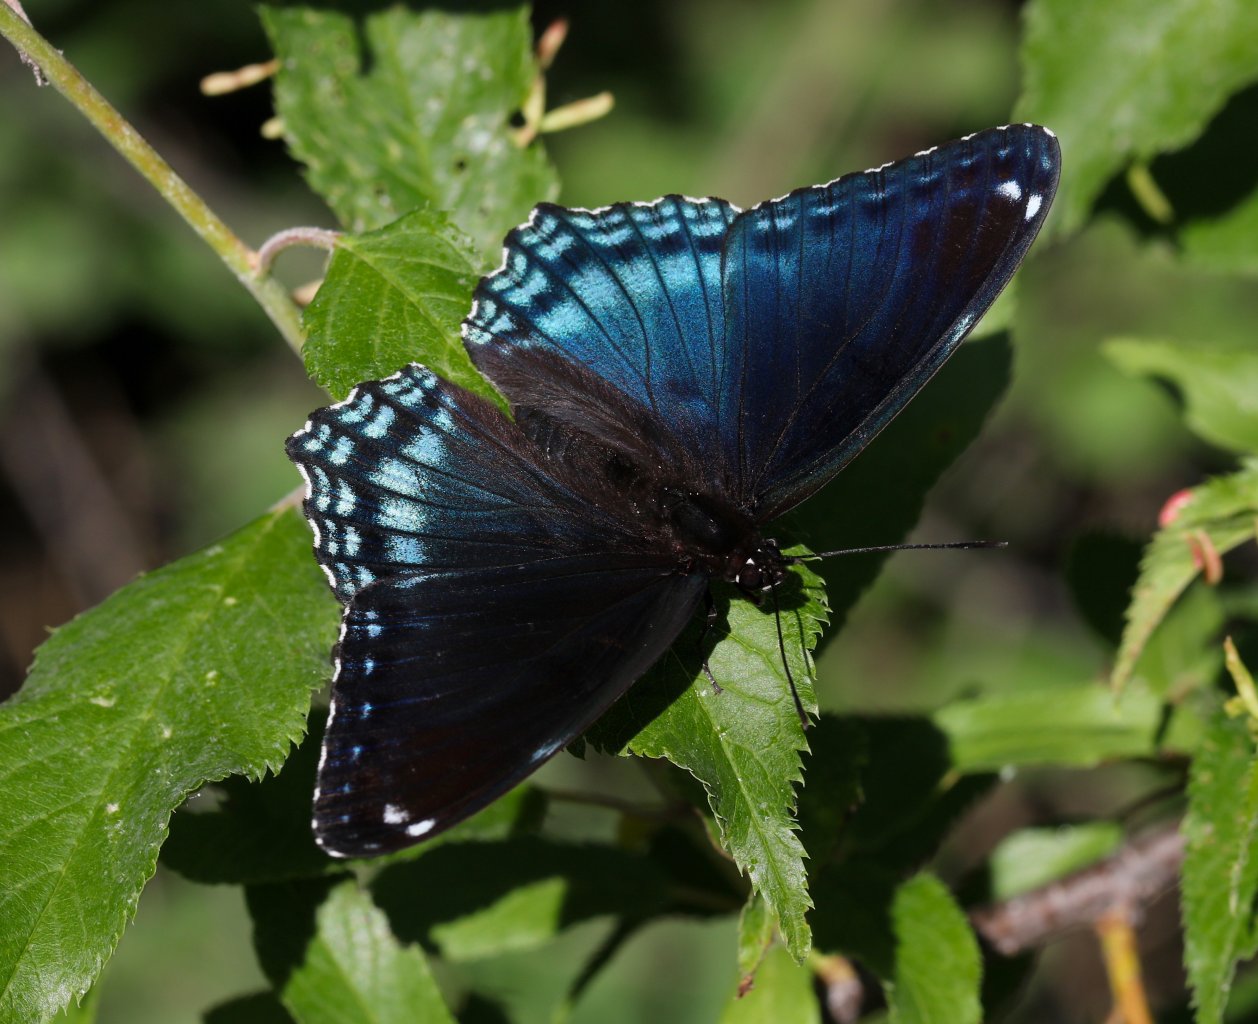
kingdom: Animalia
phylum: Arthropoda
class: Insecta
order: Lepidoptera
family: Nymphalidae
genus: Limenitis
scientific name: Limenitis astyanax
